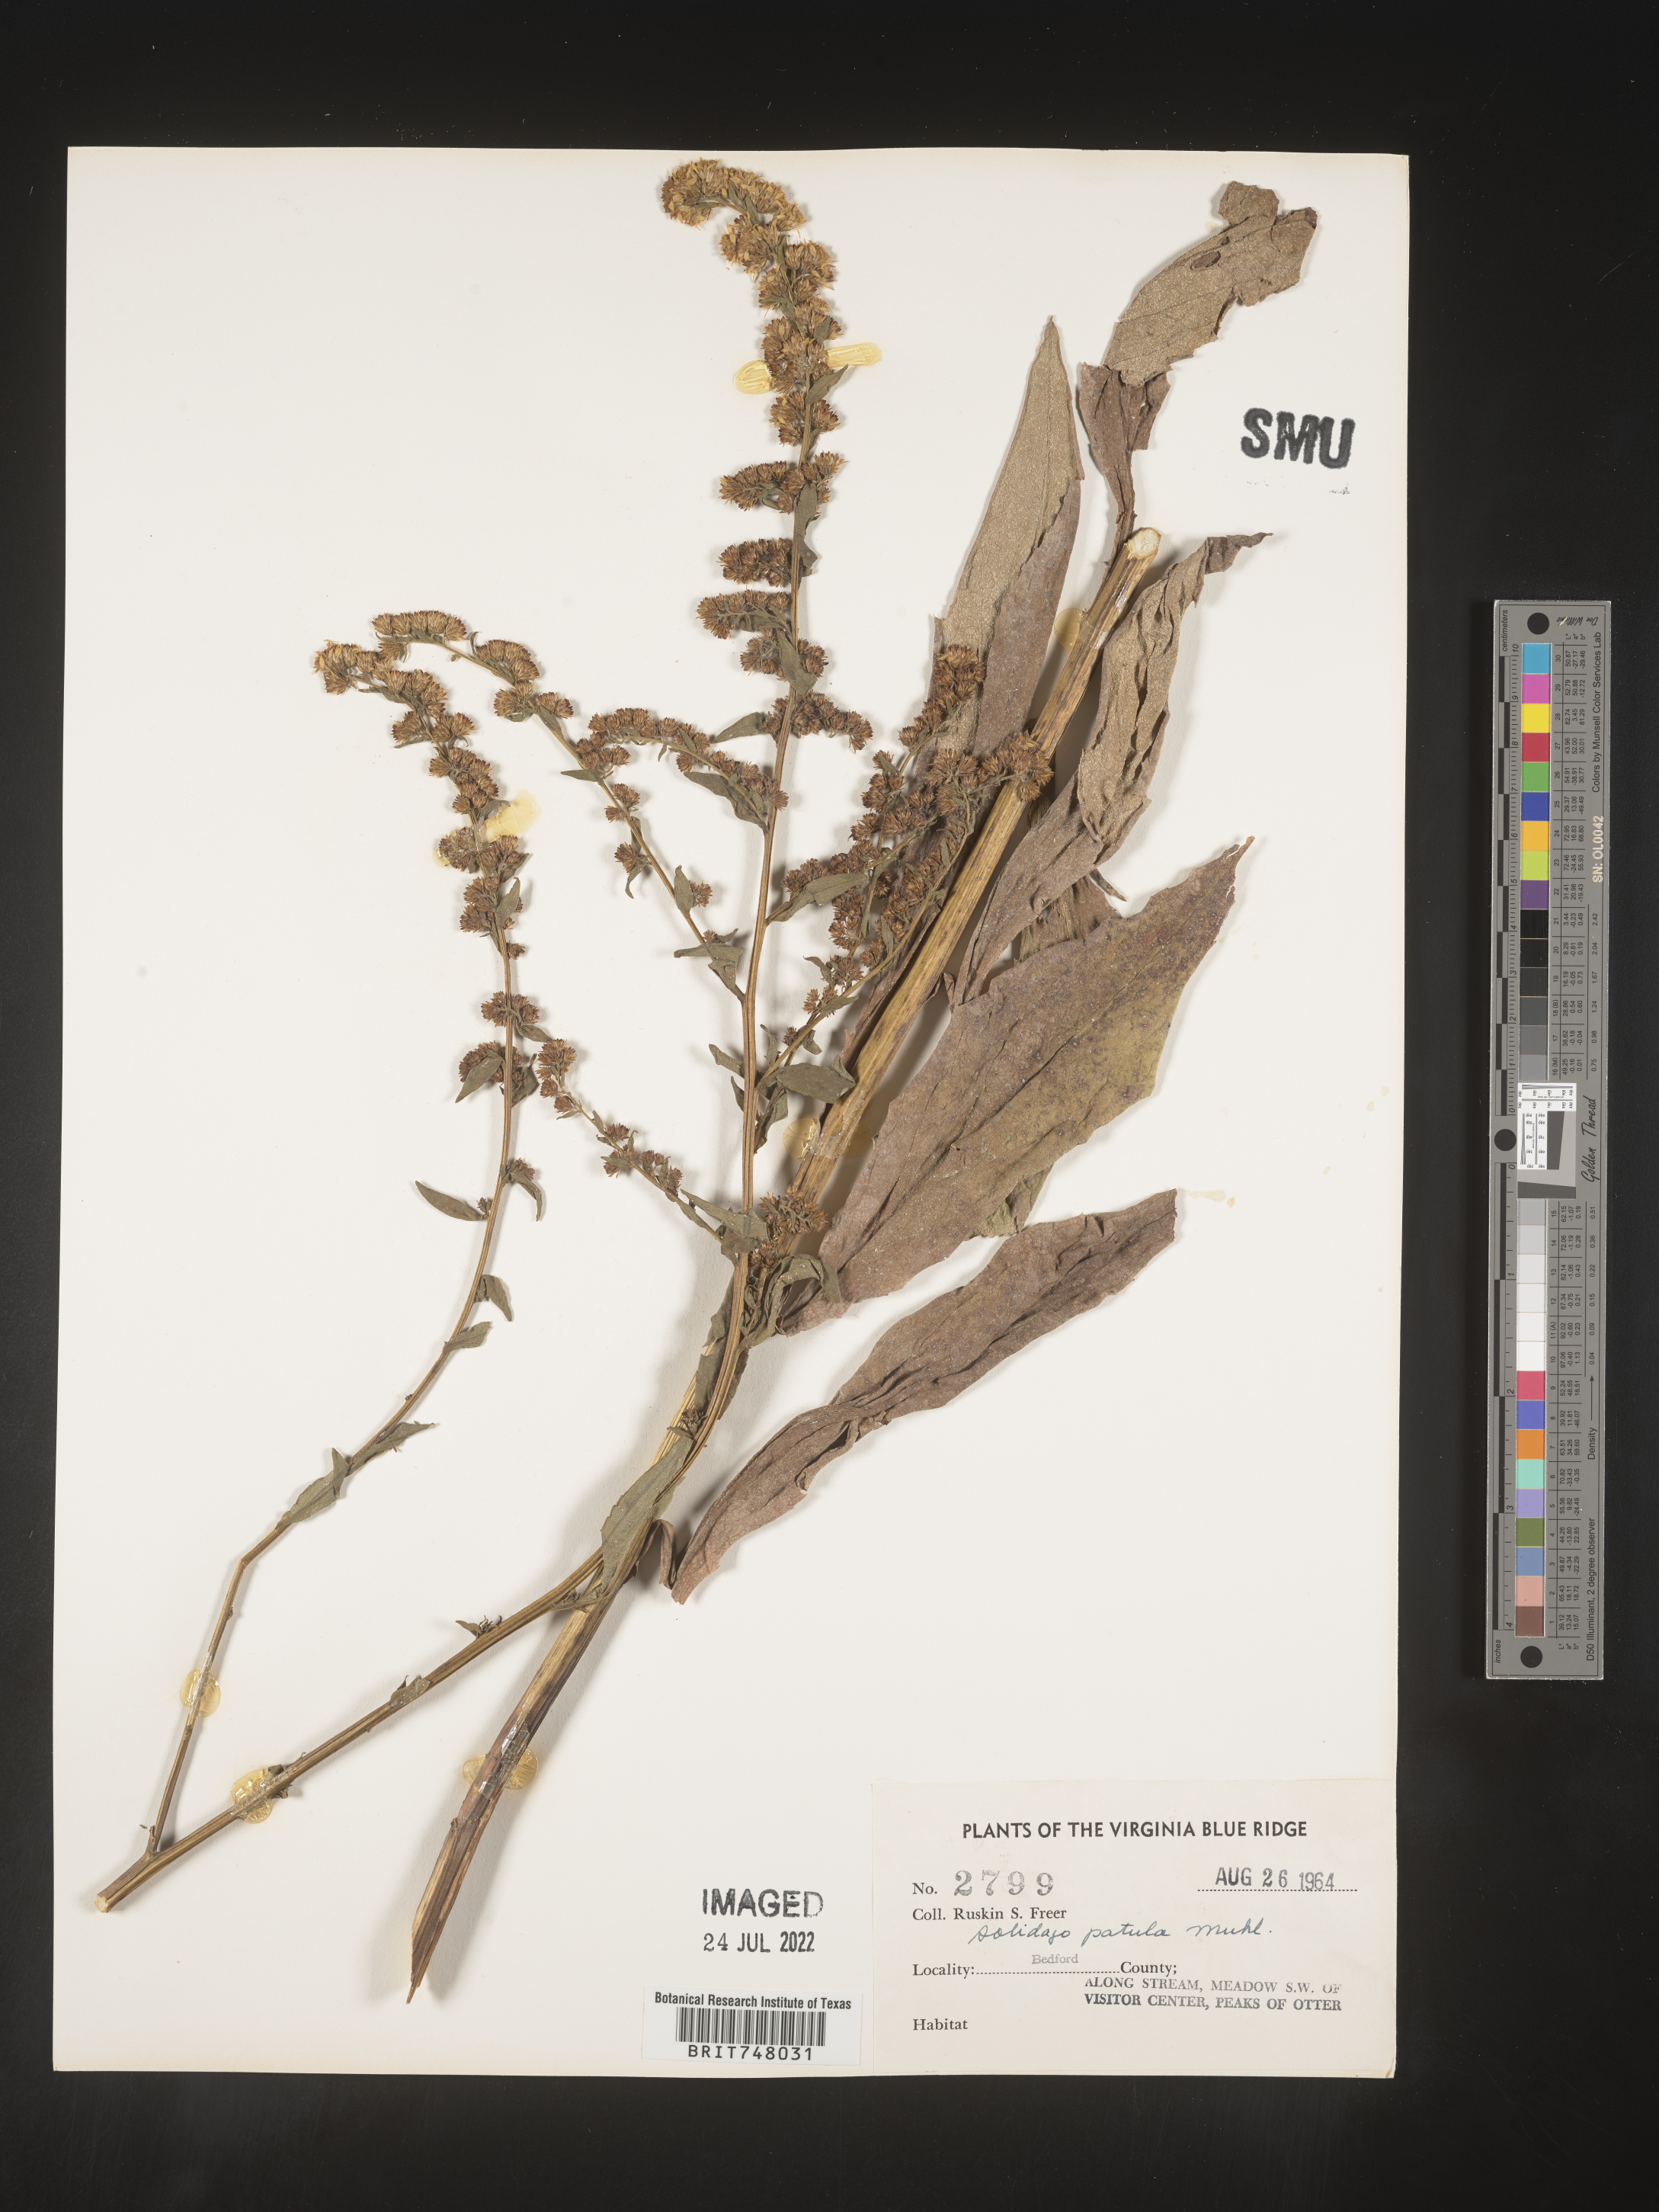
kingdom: Plantae
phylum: Tracheophyta
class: Magnoliopsida
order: Asterales
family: Asteraceae
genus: Solidago
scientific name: Solidago patula
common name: Rough-leaf goldenrod
